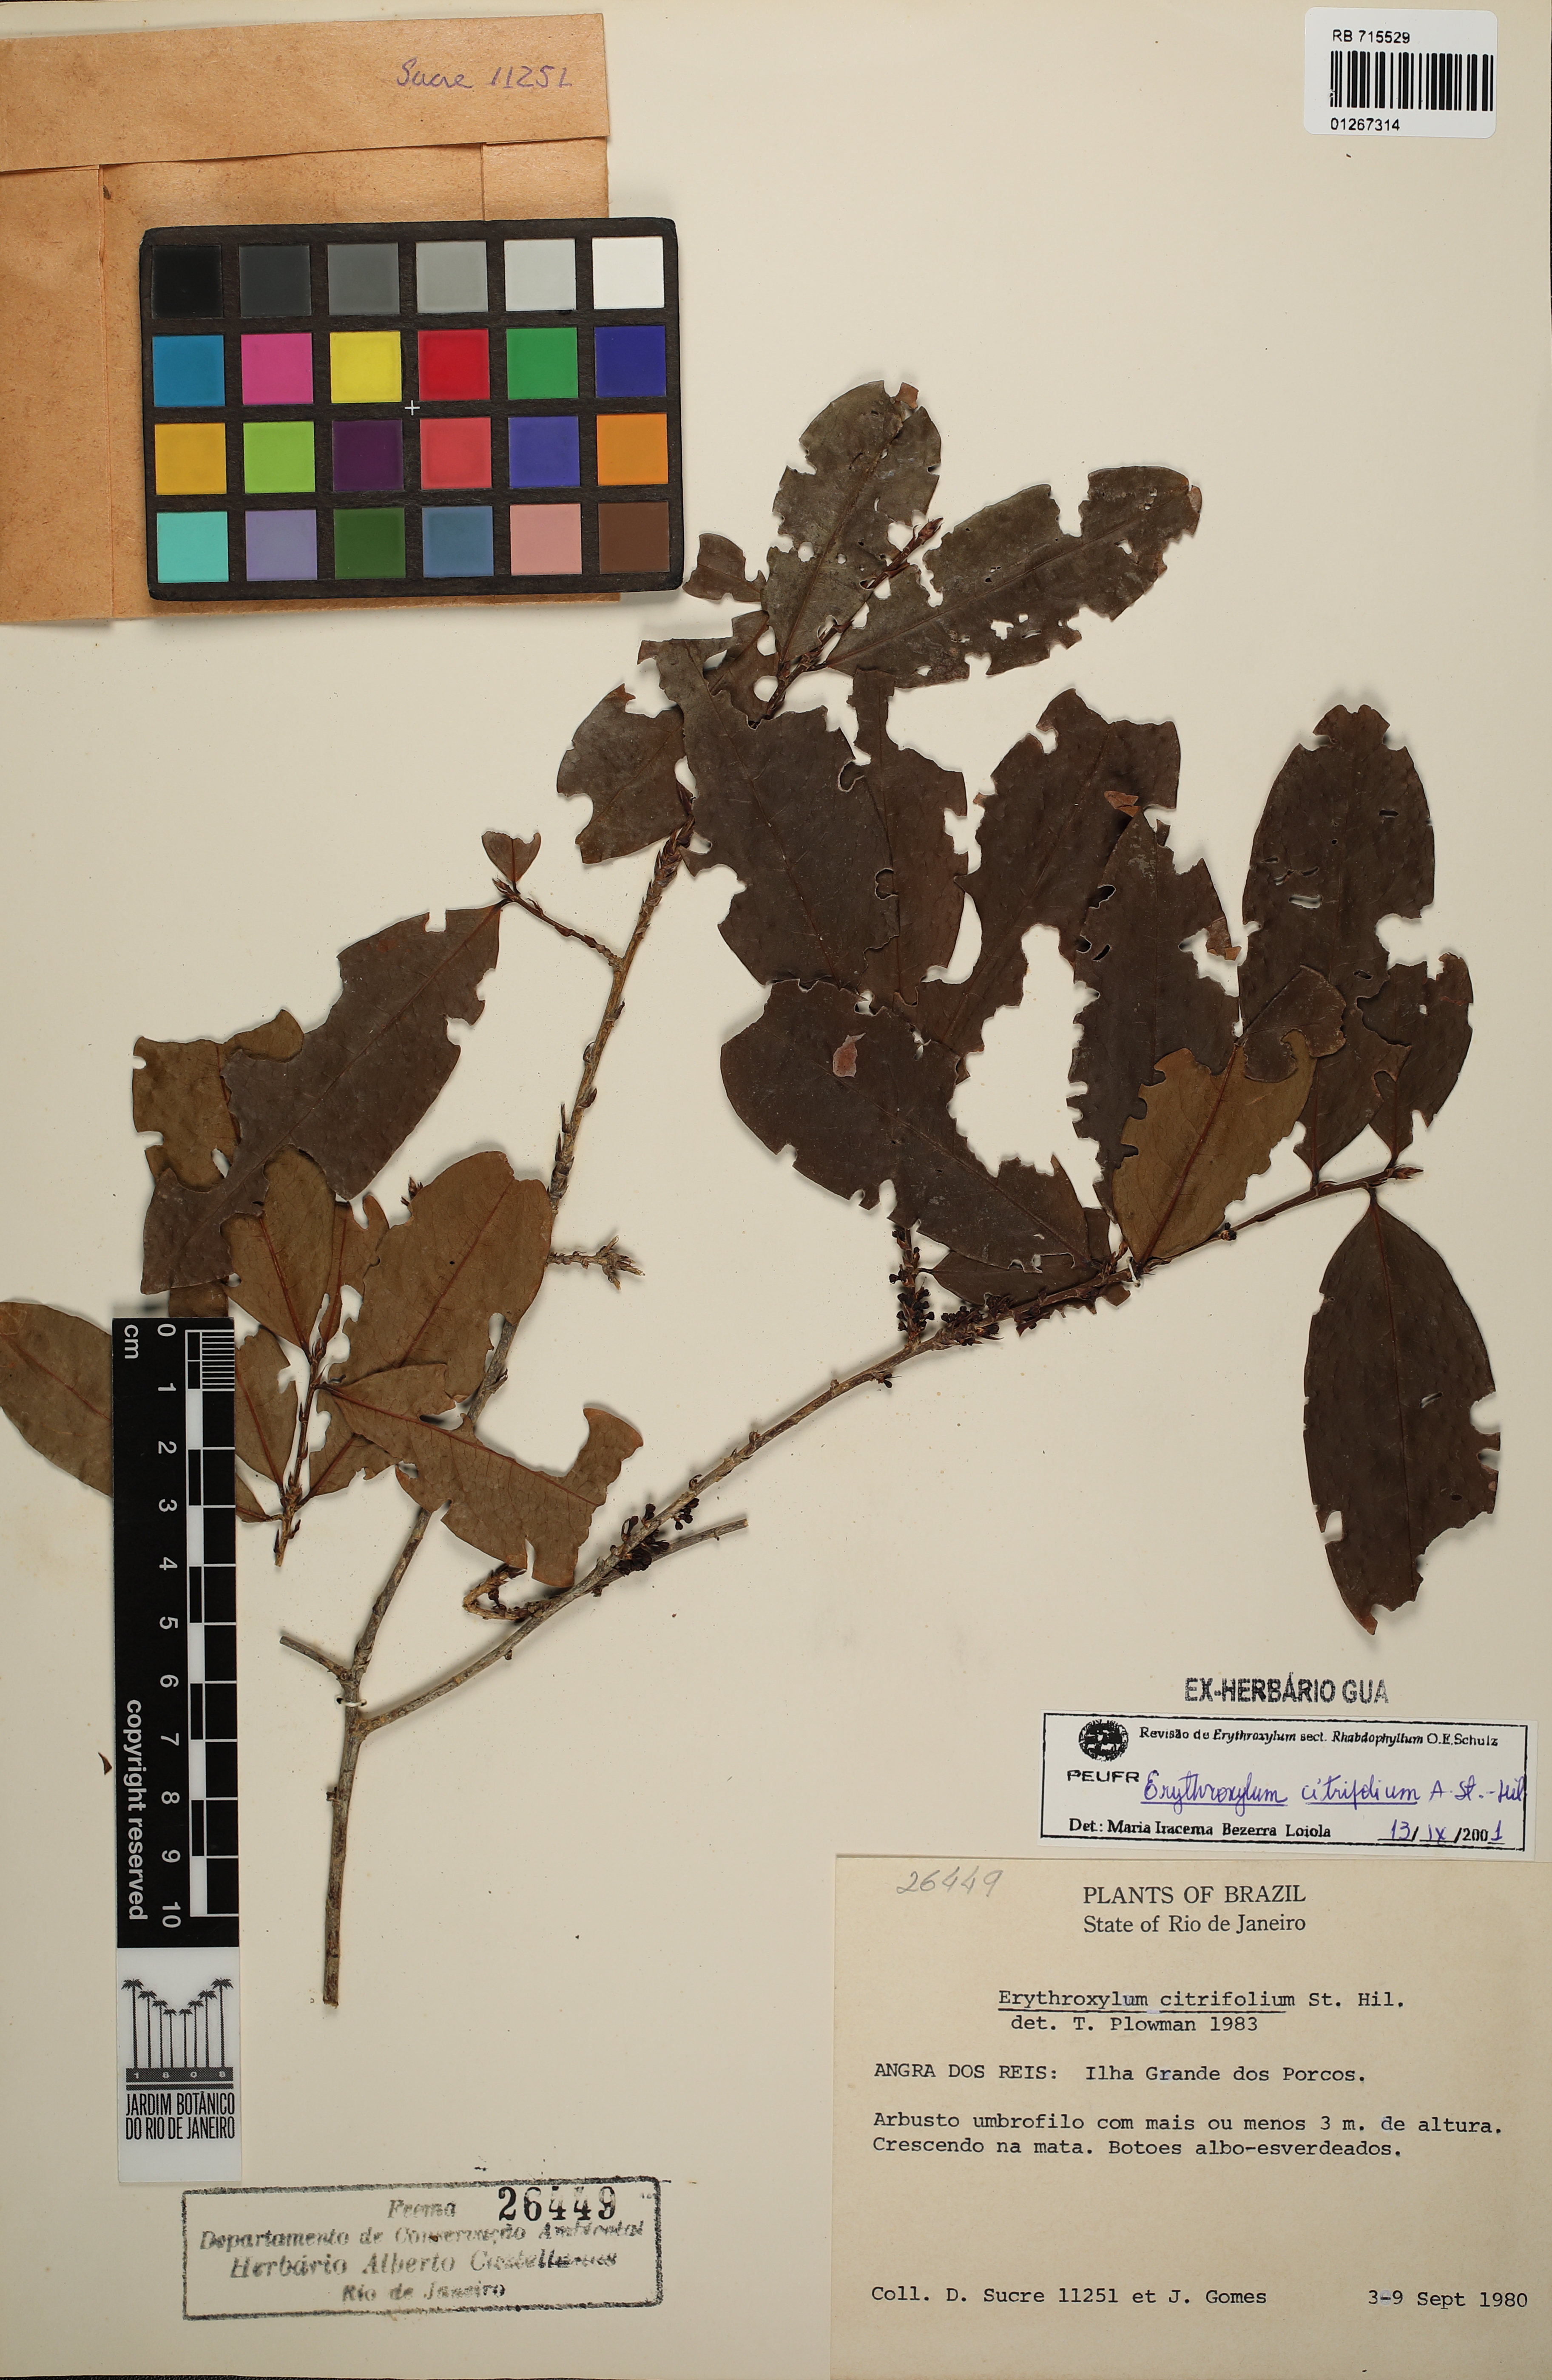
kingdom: Plantae
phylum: Tracheophyta
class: Magnoliopsida
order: Malpighiales
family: Erythroxylaceae
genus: Erythroxylum
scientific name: Erythroxylum citrifolium
